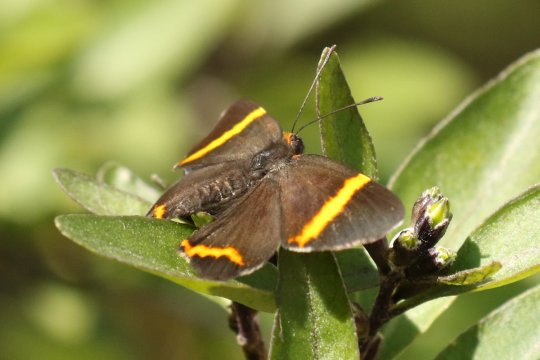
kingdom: Animalia
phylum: Arthropoda
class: Insecta
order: Lepidoptera
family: Riodinidae
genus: Riodina
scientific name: Riodina lysippoides
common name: Little Dancer Metalmark
